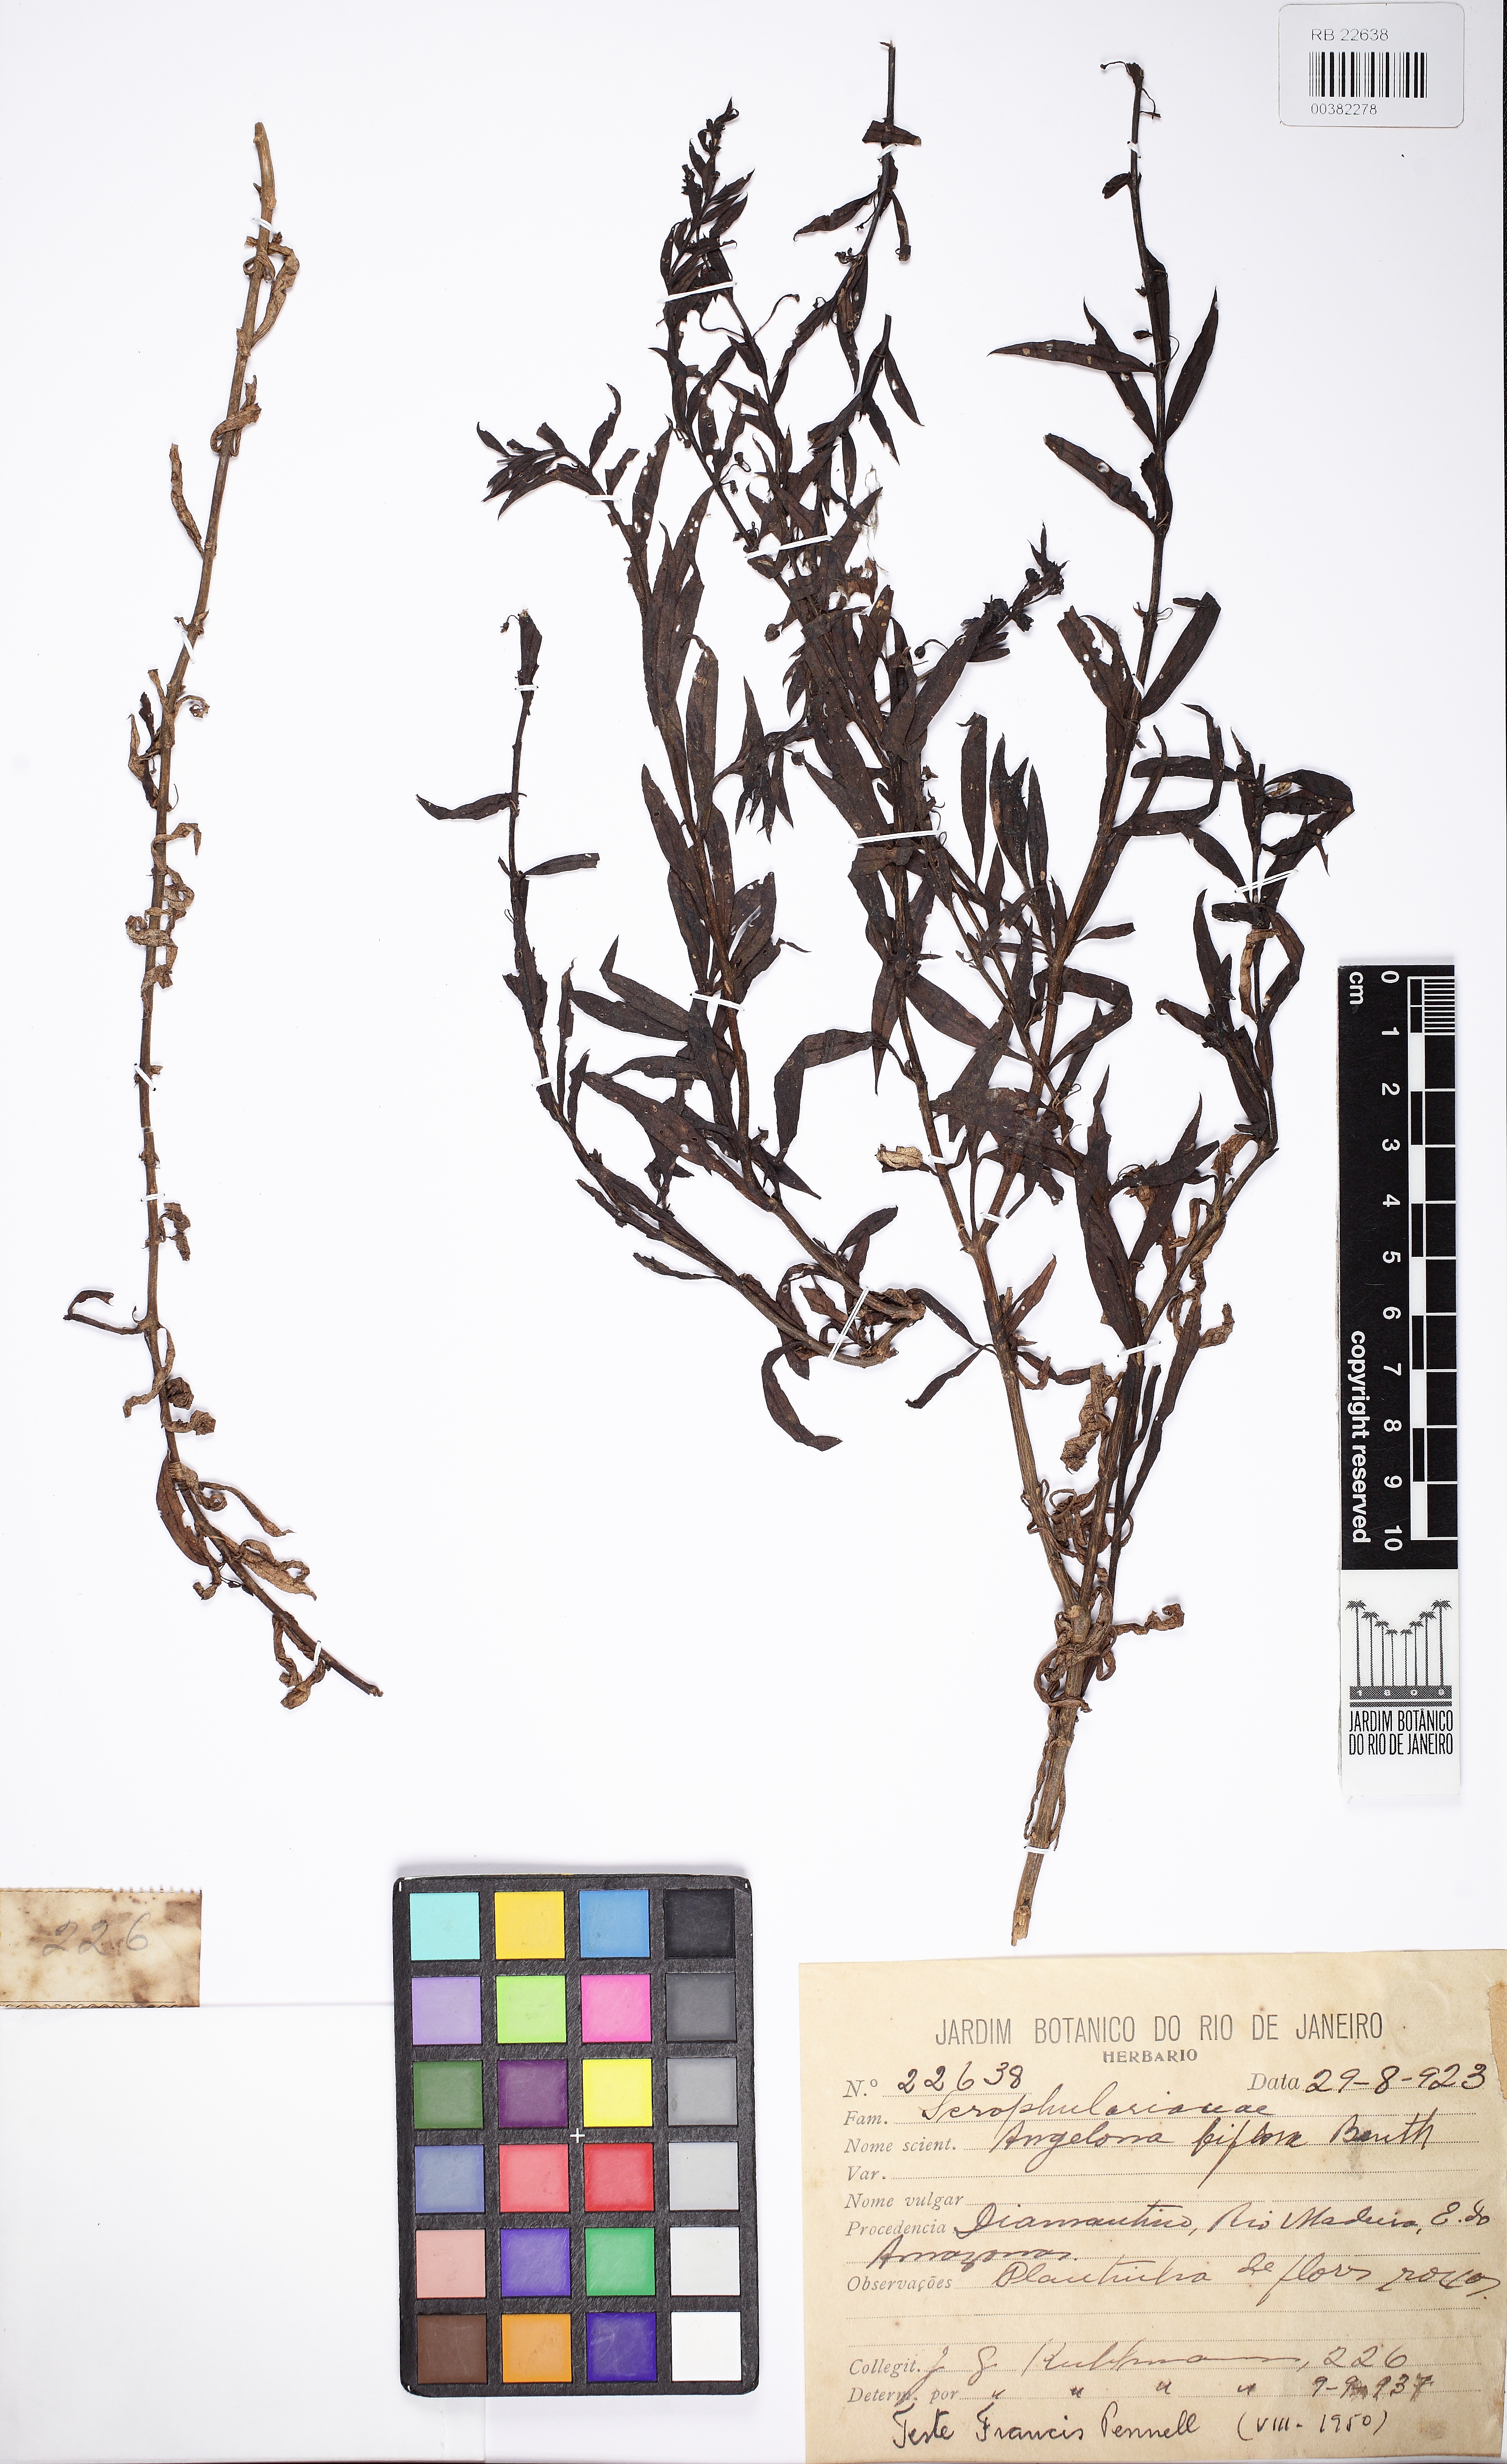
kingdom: Plantae
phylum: Tracheophyta
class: Magnoliopsida
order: Lamiales
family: Plantaginaceae
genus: Angelonia
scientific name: Angelonia biflora
